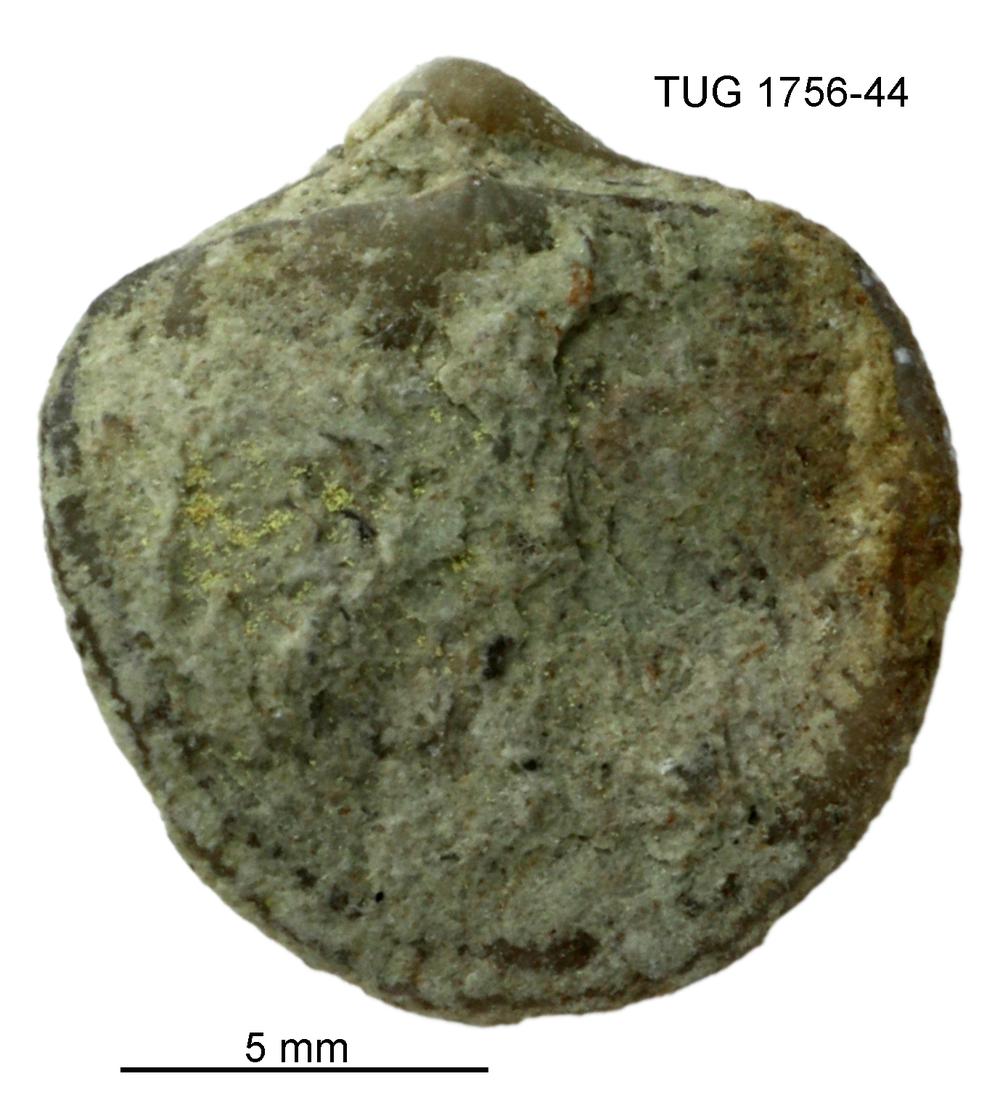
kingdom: Animalia
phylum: Brachiopoda
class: Rhynchonellata
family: Dalmanellidae
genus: Resserella
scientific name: Resserella Orthis canalis
